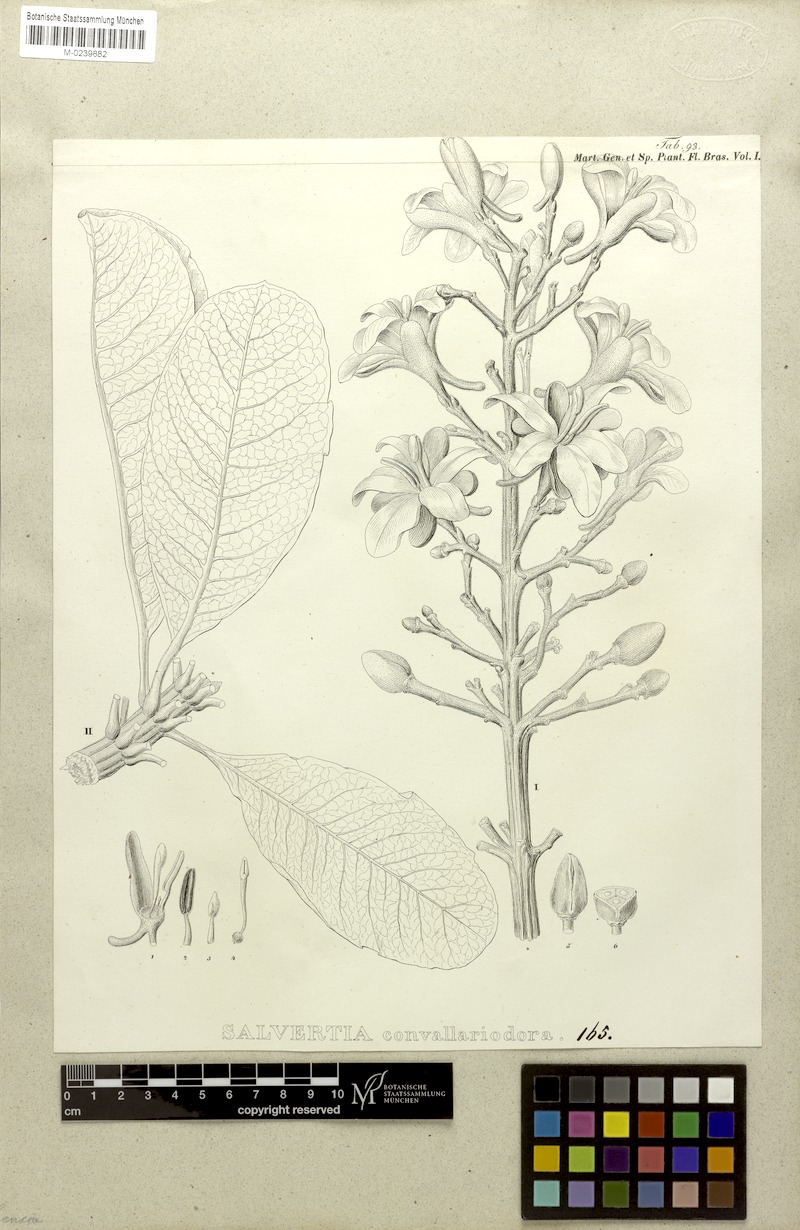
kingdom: Plantae
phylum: Tracheophyta
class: Magnoliopsida
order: Myrtales
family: Vochysiaceae
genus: Salvertia
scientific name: Salvertia convallariodora
